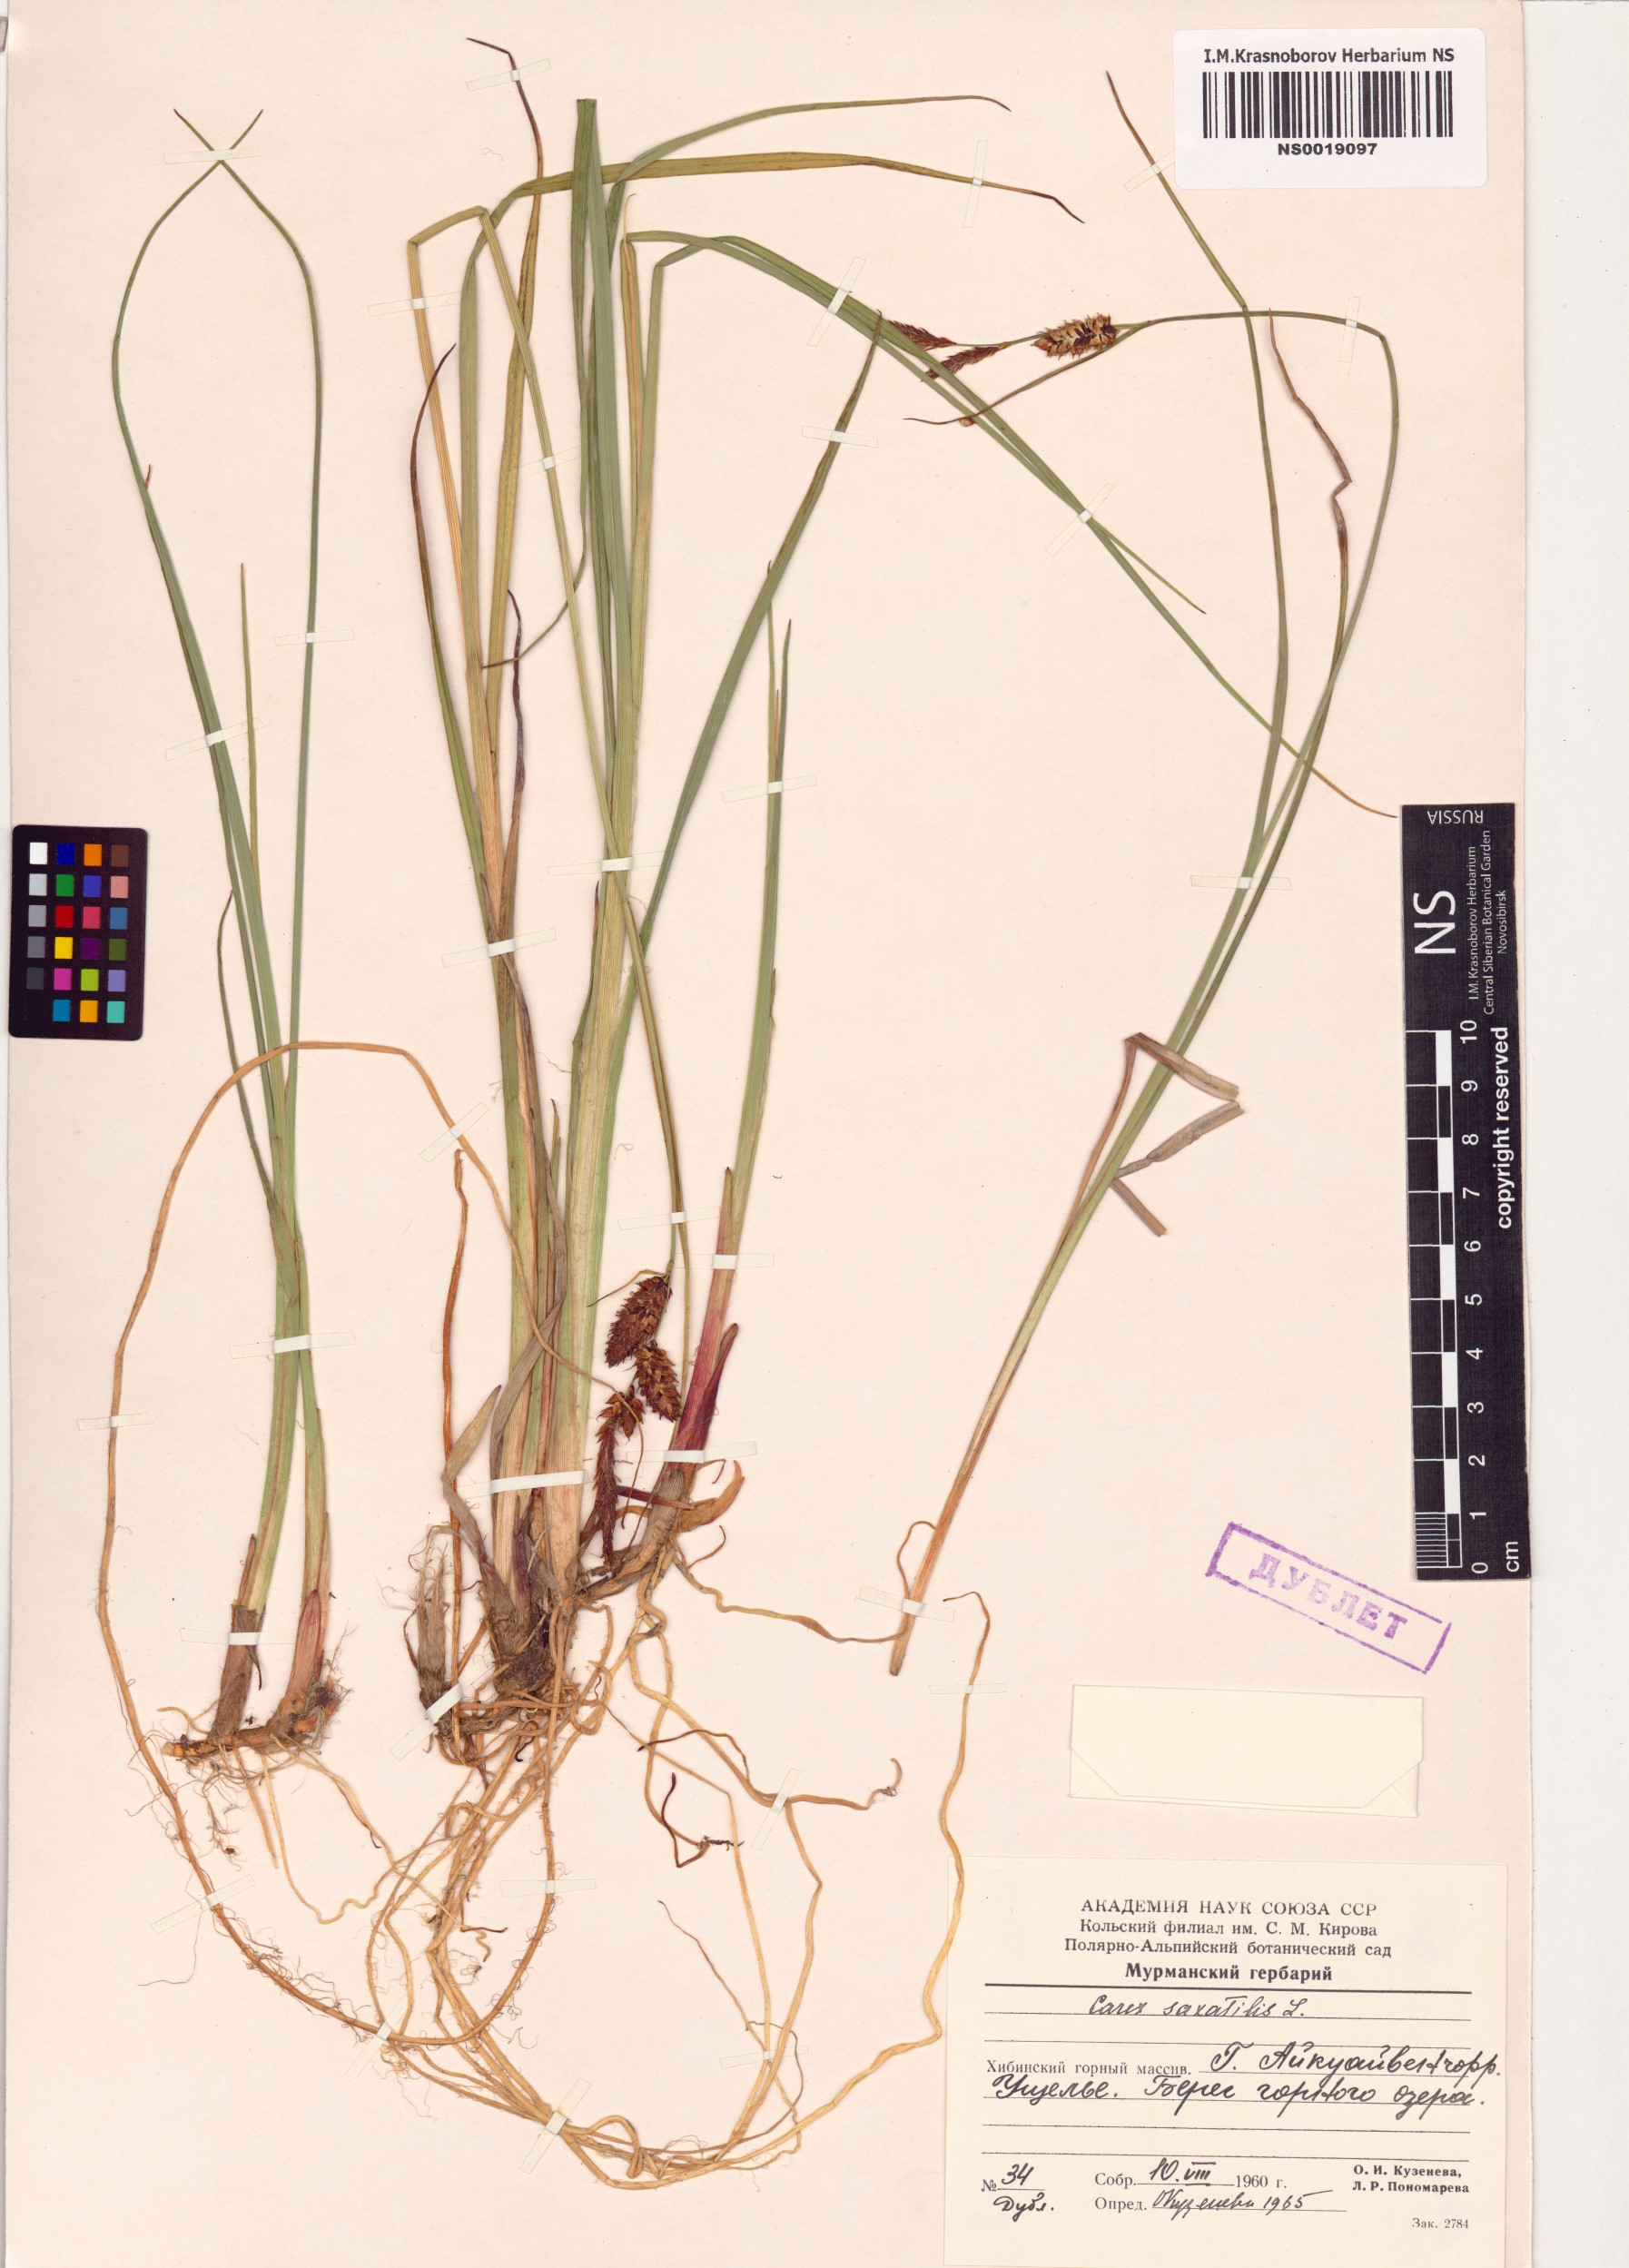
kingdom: Plantae
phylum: Tracheophyta
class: Liliopsida
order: Poales
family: Cyperaceae
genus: Carex
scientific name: Carex saxatilis
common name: Russet sedge
